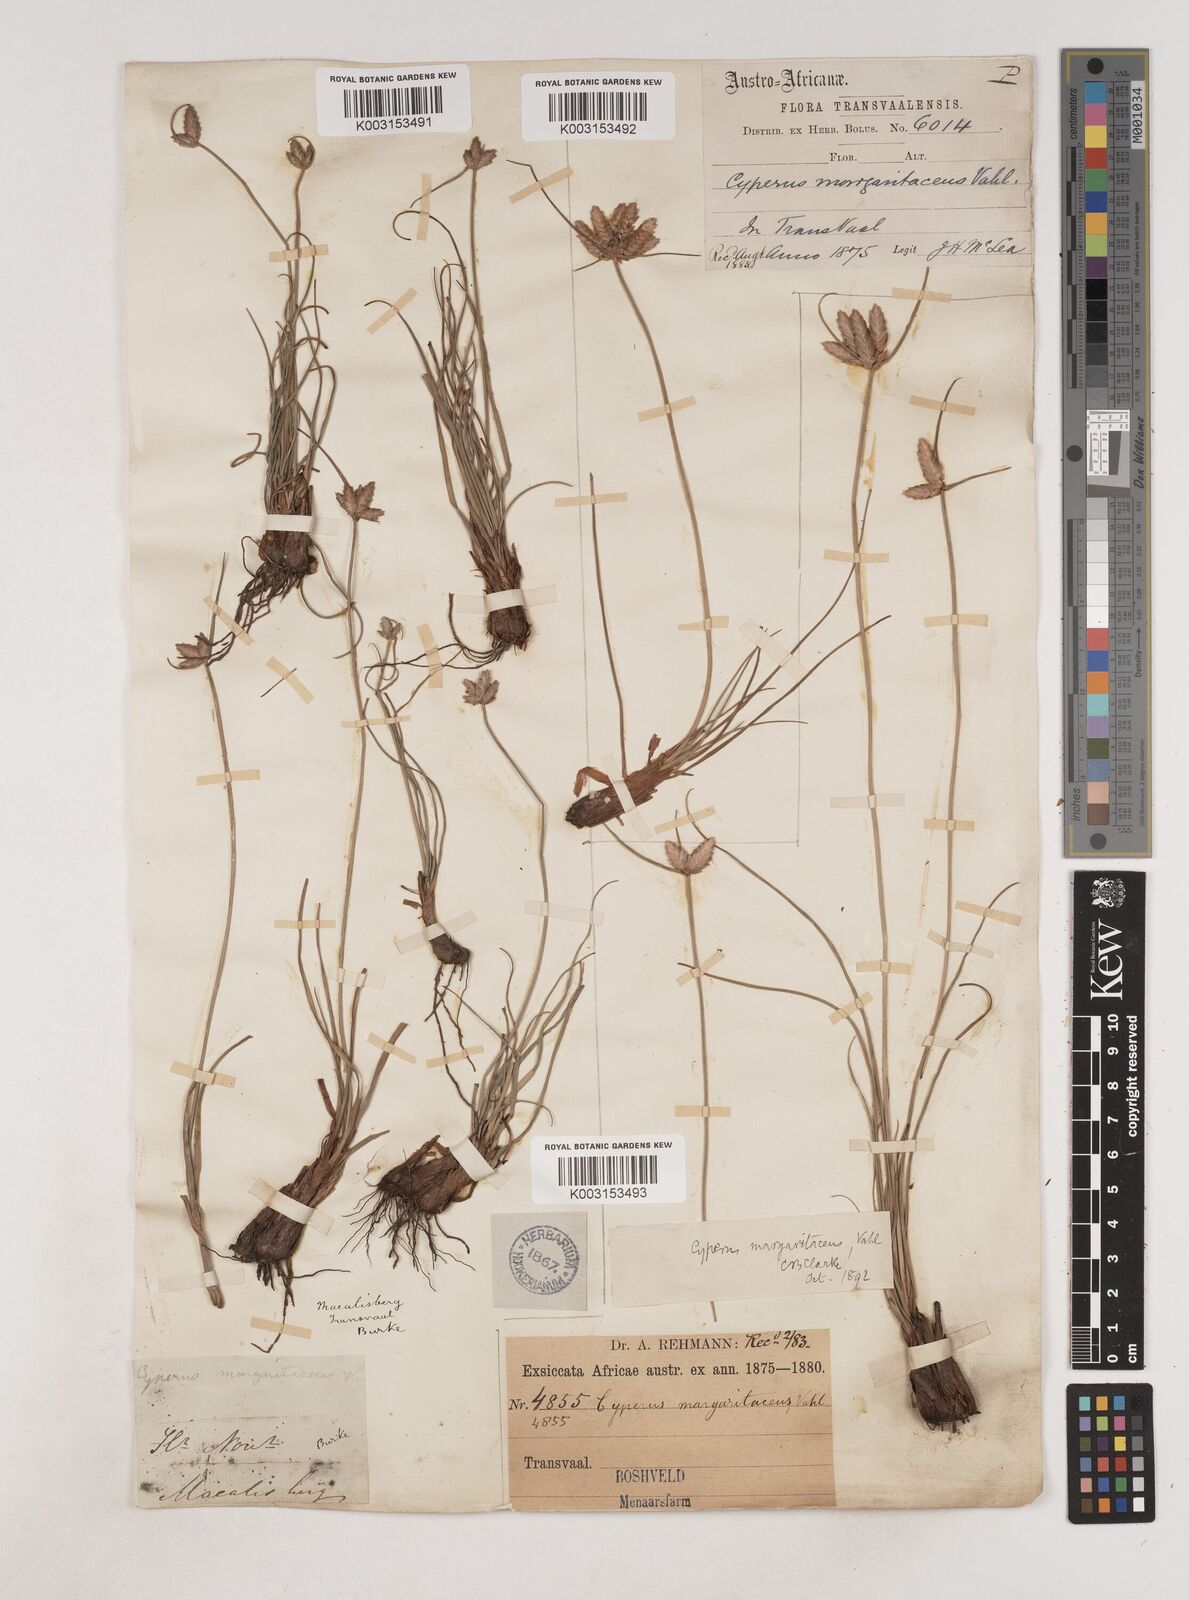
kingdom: Plantae
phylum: Tracheophyta
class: Liliopsida
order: Poales
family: Cyperaceae
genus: Cyperus
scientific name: Cyperus margaritaceus
